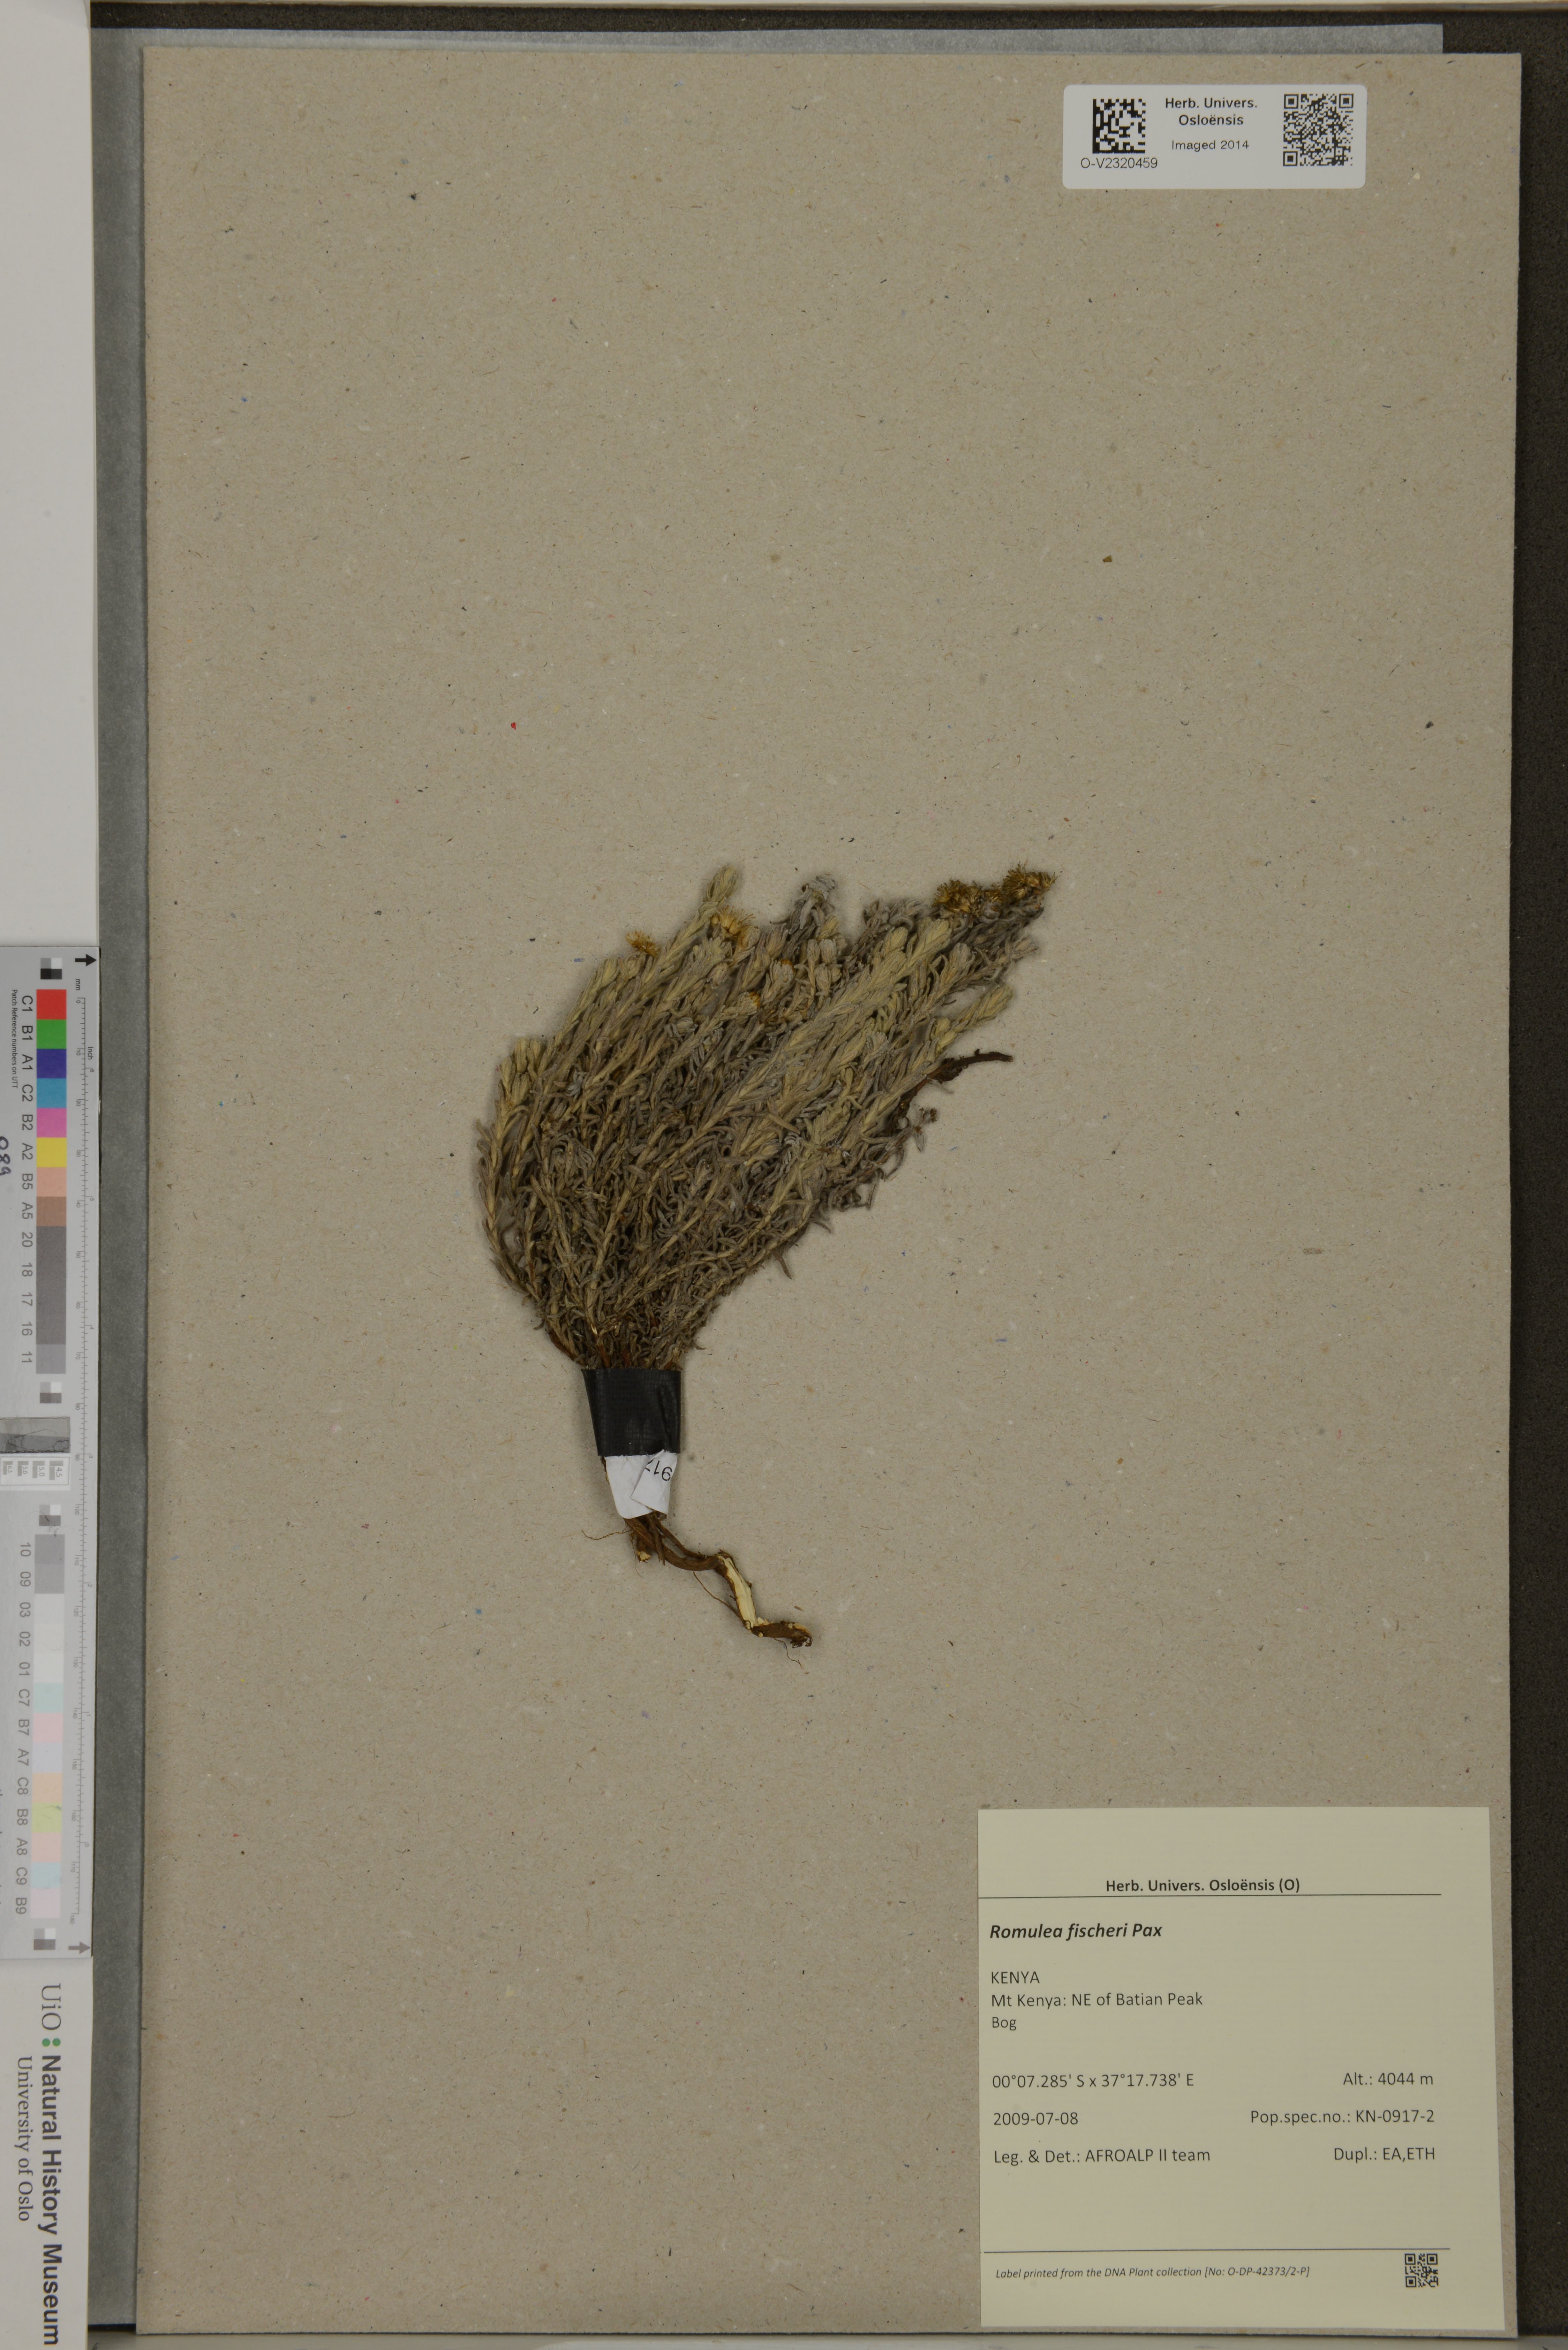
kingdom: Plantae
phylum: Tracheophyta
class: Liliopsida
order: Asparagales
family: Iridaceae
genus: Romulea
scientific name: Romulea fischeri
